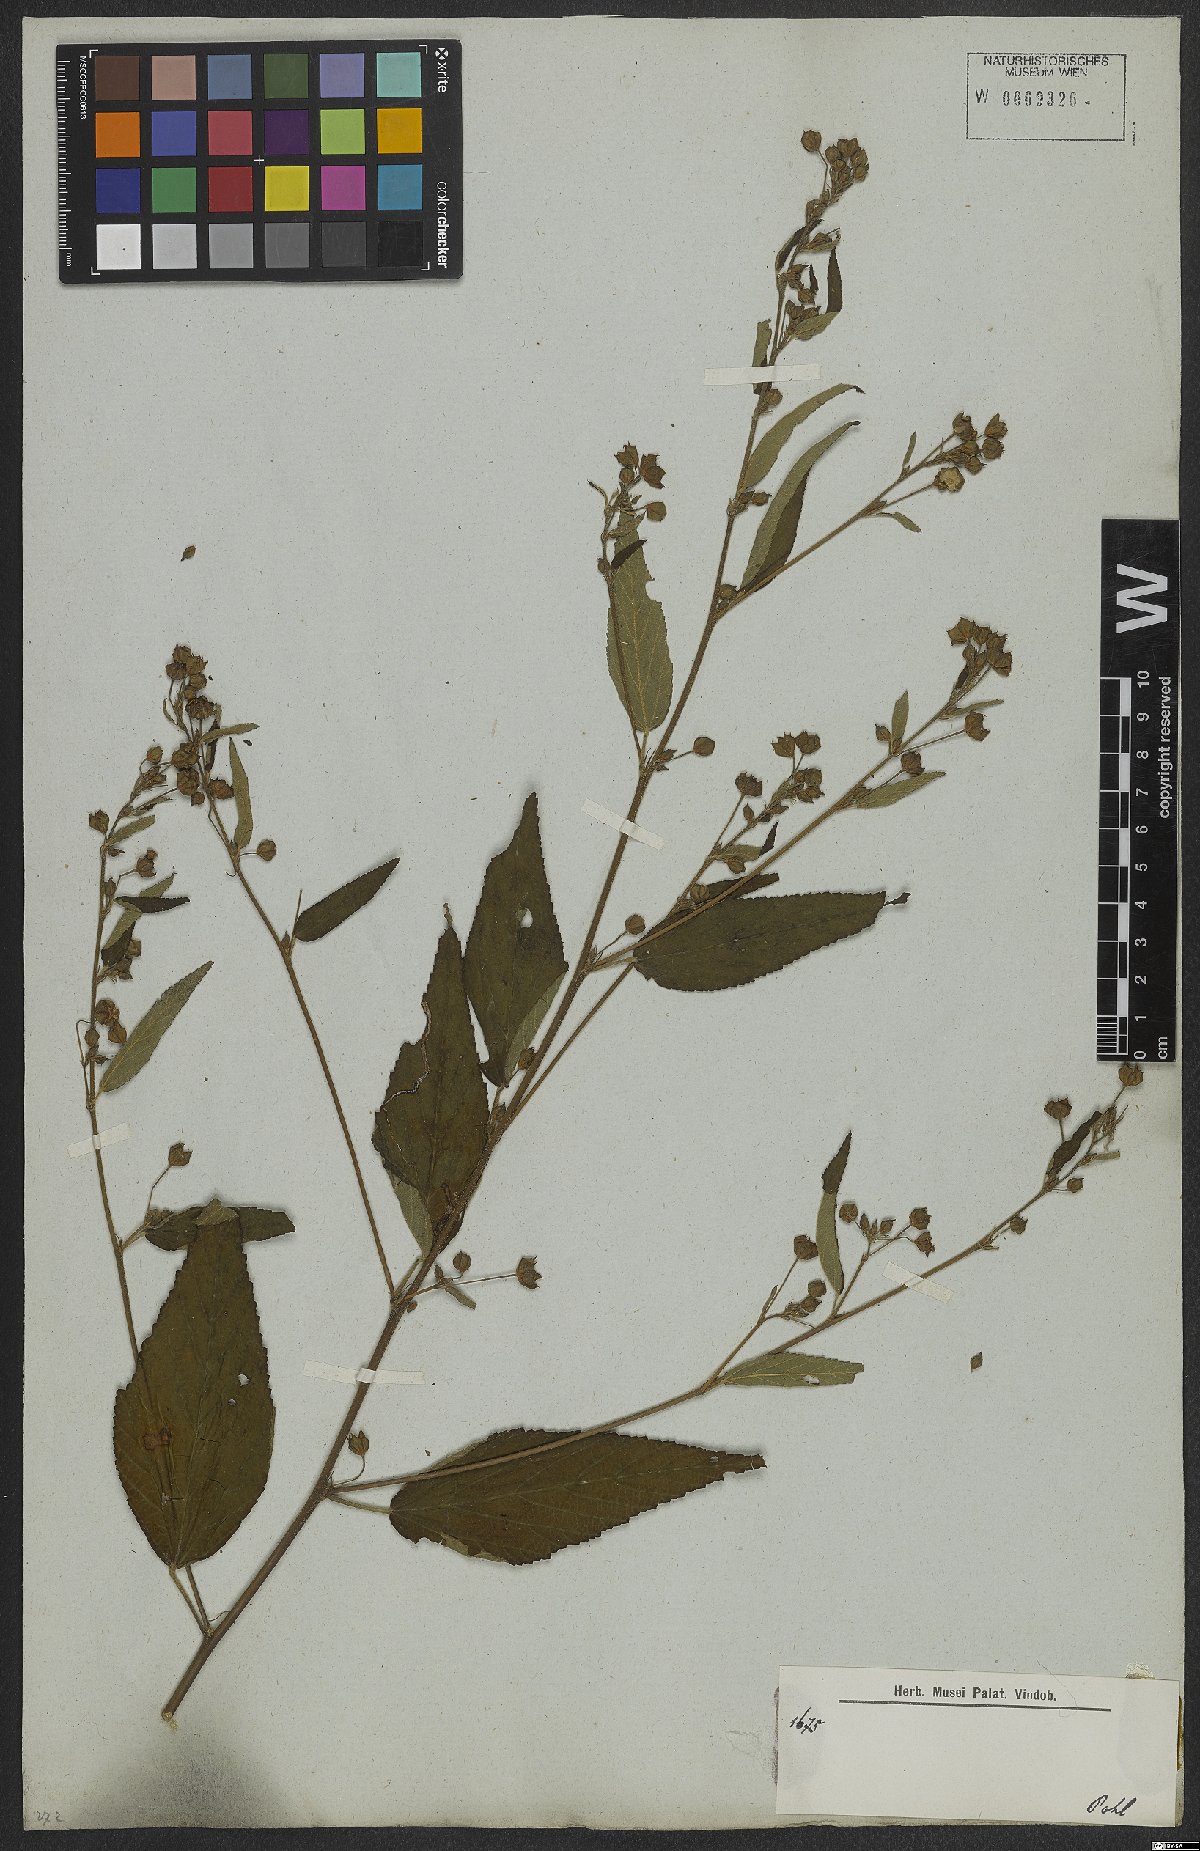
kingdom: Plantae
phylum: Tracheophyta
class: Magnoliopsida
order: Malvales
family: Malvaceae
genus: Sida
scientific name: Sida rhombifolia
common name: Queensland-hemp
